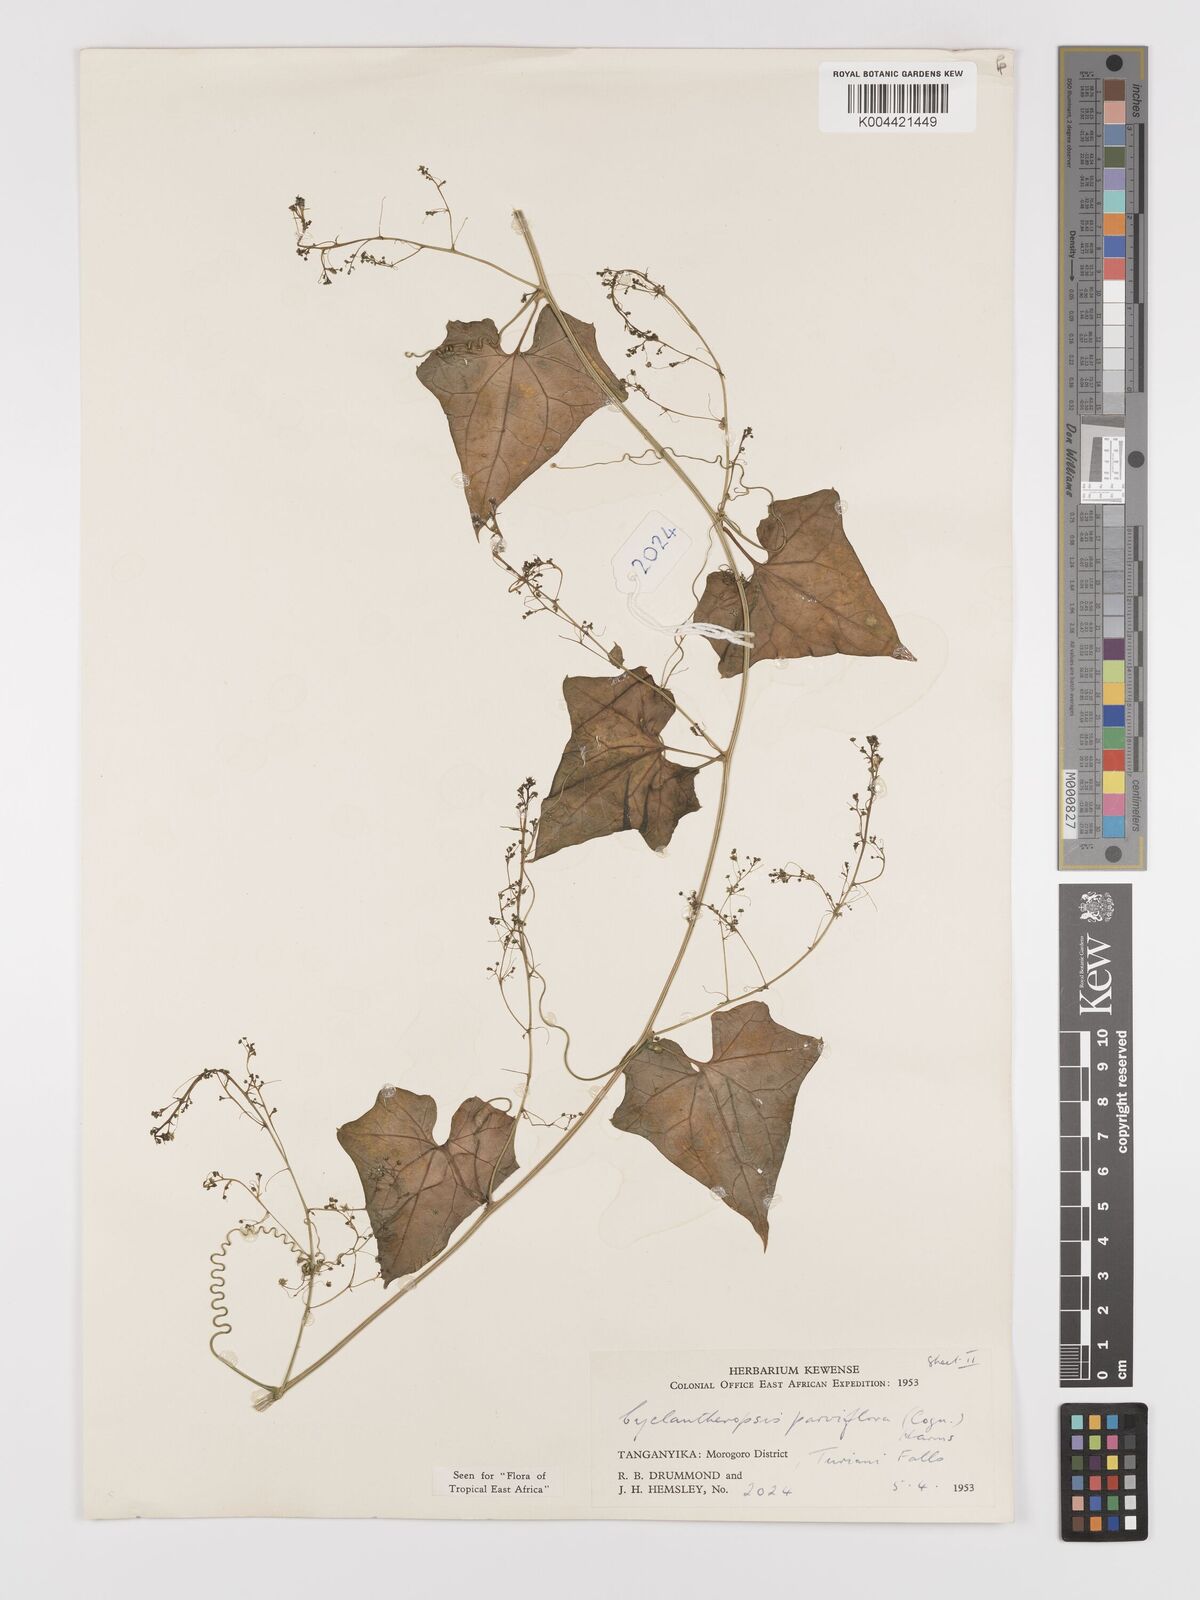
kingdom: Plantae
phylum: Tracheophyta
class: Magnoliopsida
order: Cucurbitales
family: Cucurbitaceae
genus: Cyclantheropsis
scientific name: Cyclantheropsis parviflora
